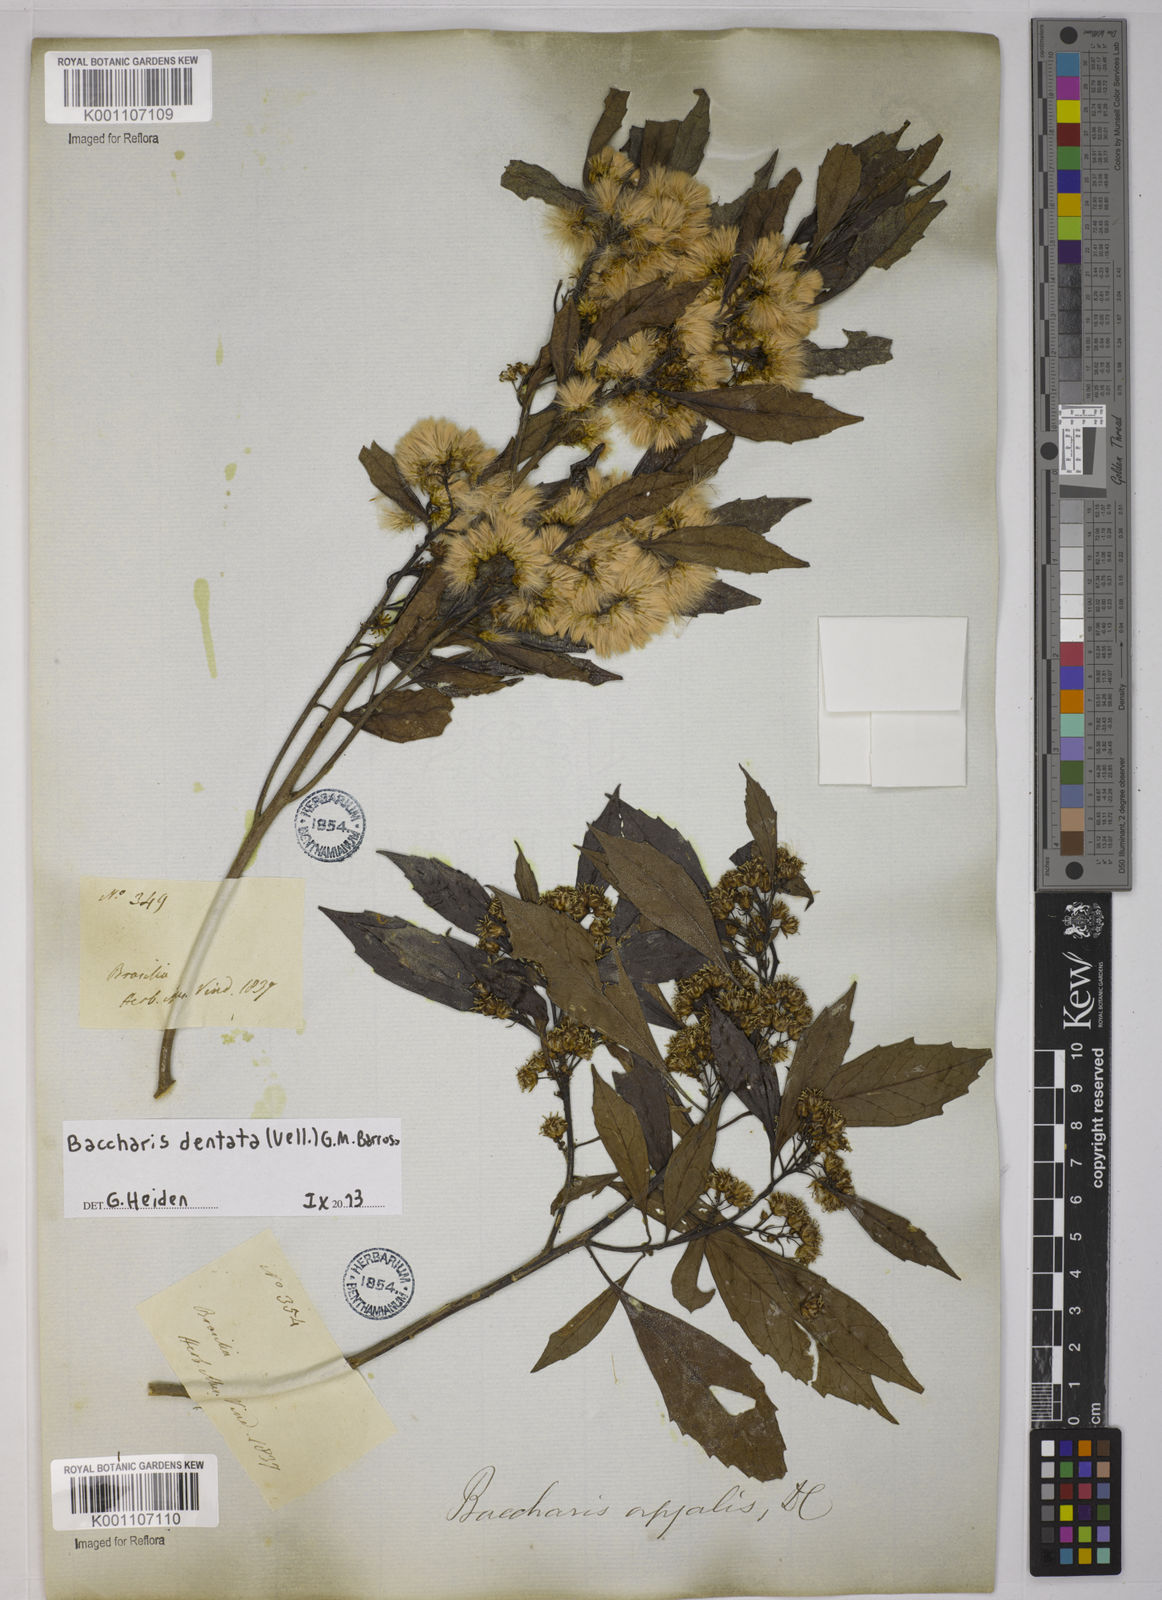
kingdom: Plantae
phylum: Tracheophyta
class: Magnoliopsida
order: Asterales
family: Asteraceae
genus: Baccharis
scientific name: Baccharis dentata
